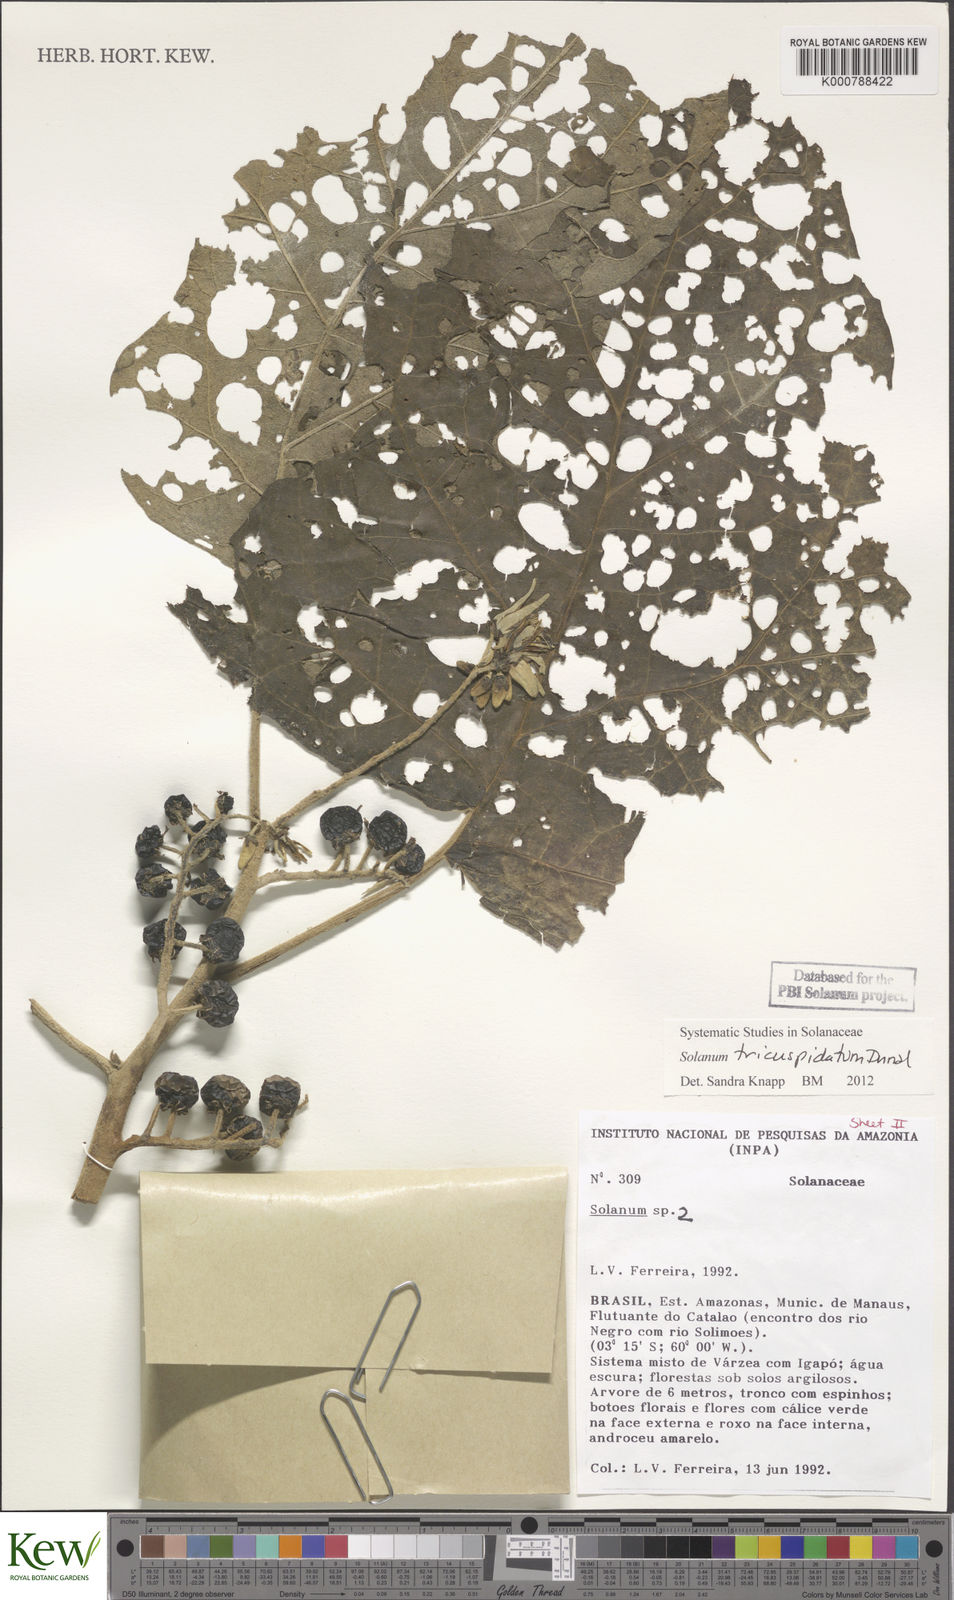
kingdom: Plantae
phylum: Tracheophyta
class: Magnoliopsida
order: Solanales
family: Solanaceae
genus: Solanum
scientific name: Solanum tricuspidatum
